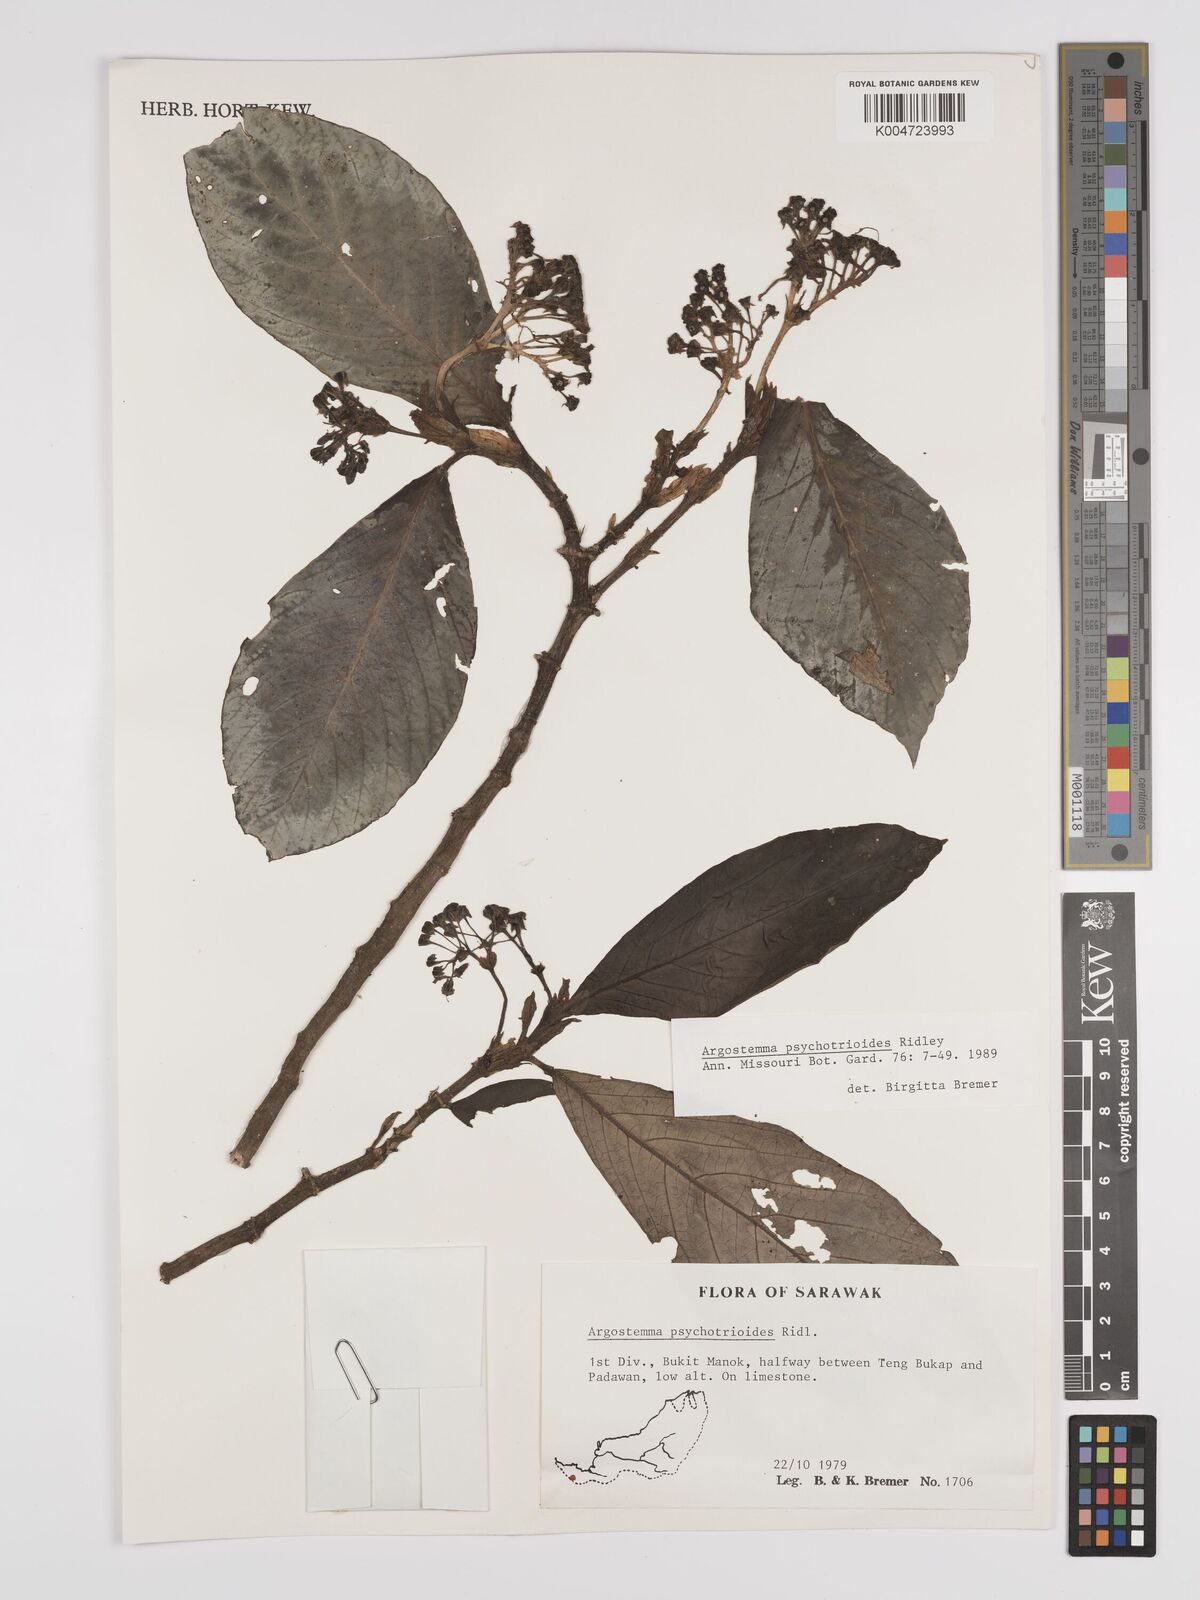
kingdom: Plantae
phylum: Tracheophyta
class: Magnoliopsida
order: Gentianales
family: Rubiaceae
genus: Argostemma
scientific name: Argostemma psychotrioides
